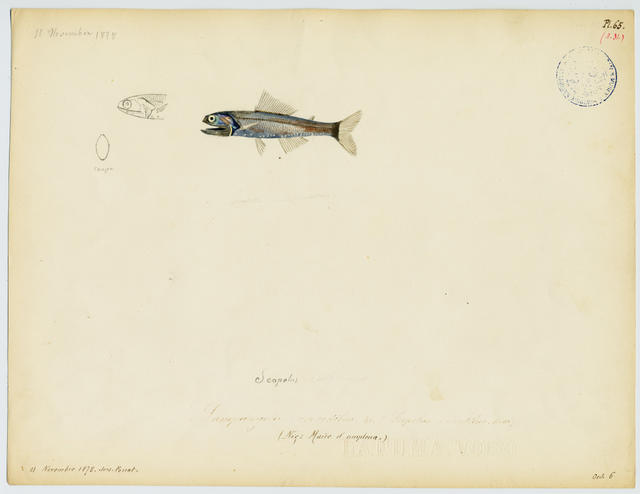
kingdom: Animalia
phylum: Chordata
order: Myctophiformes
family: Myctophidae
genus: Lampanyctus
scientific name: Lampanyctus crocodilus
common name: Jewel lanternfish
